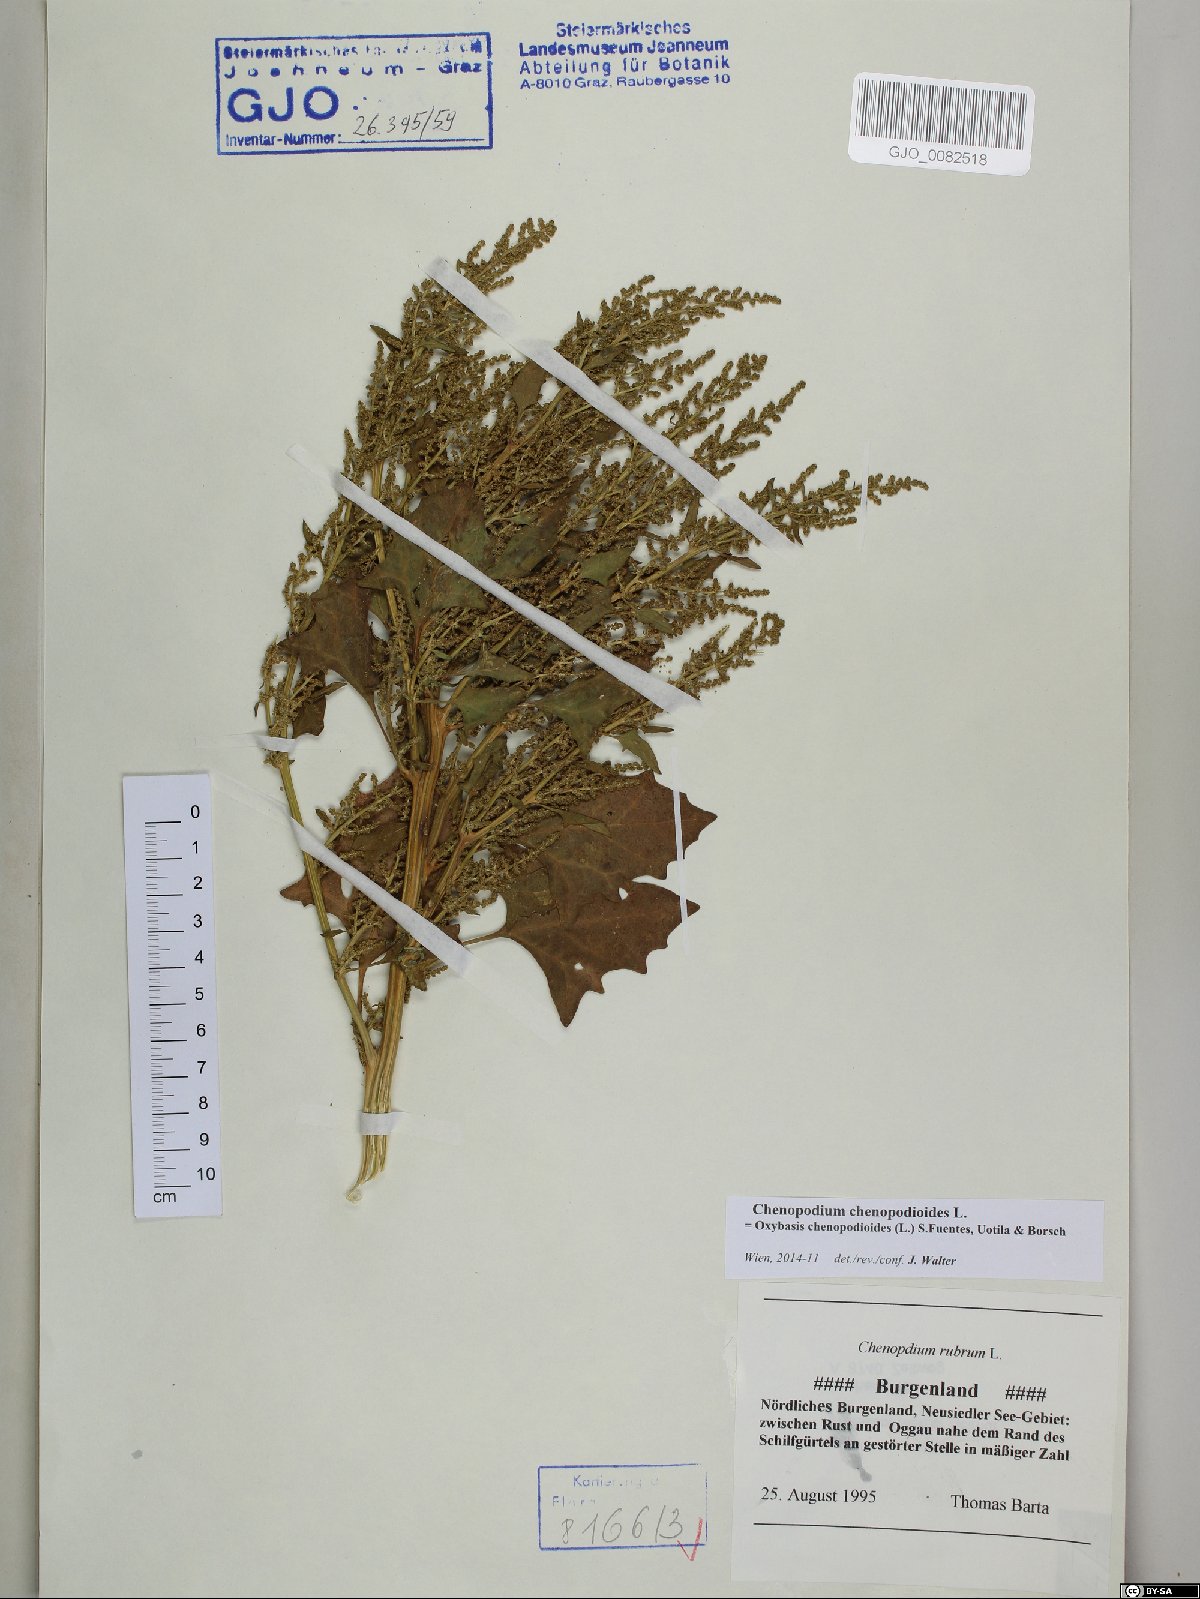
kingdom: Plantae
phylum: Tracheophyta
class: Magnoliopsida
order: Caryophyllales
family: Amaranthaceae
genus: Oxybasis
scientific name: Oxybasis chenopodioides
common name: Saltmarsh goosefoot
